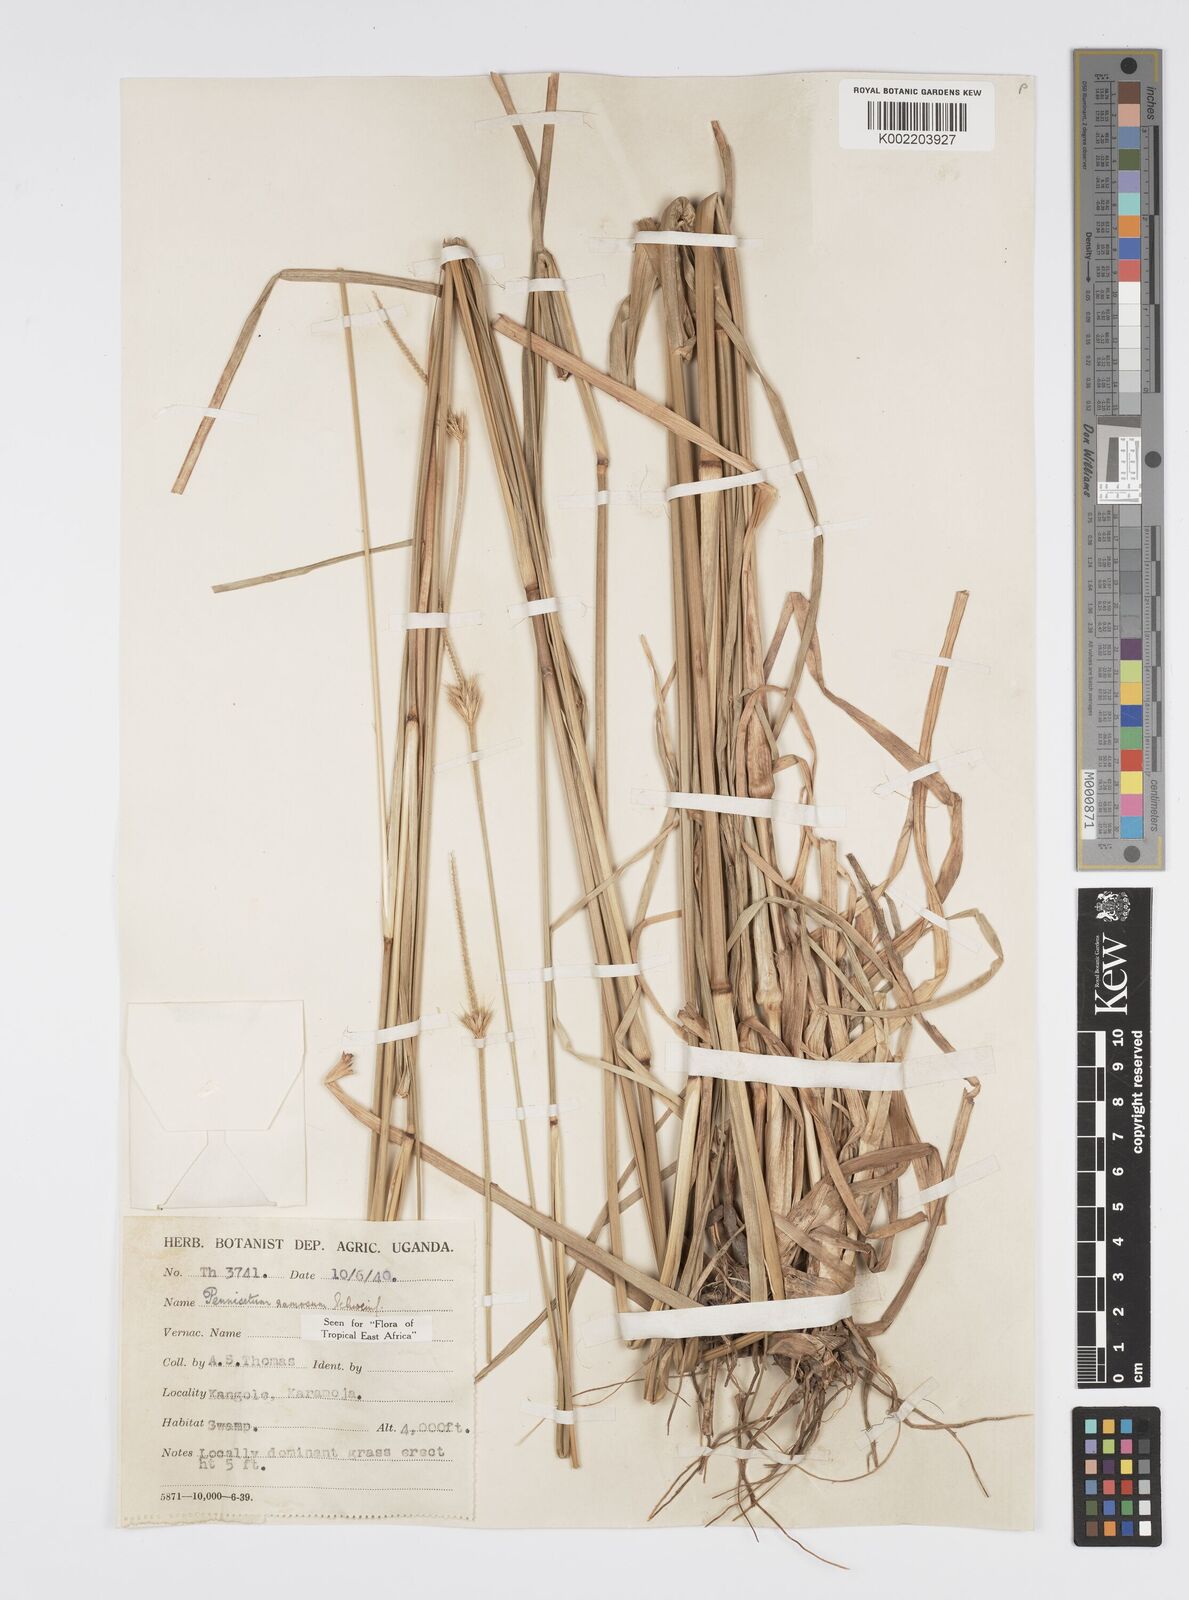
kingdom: Plantae
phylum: Tracheophyta
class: Liliopsida
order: Poales
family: Poaceae
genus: Cenchrus
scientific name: Cenchrus ramosus
